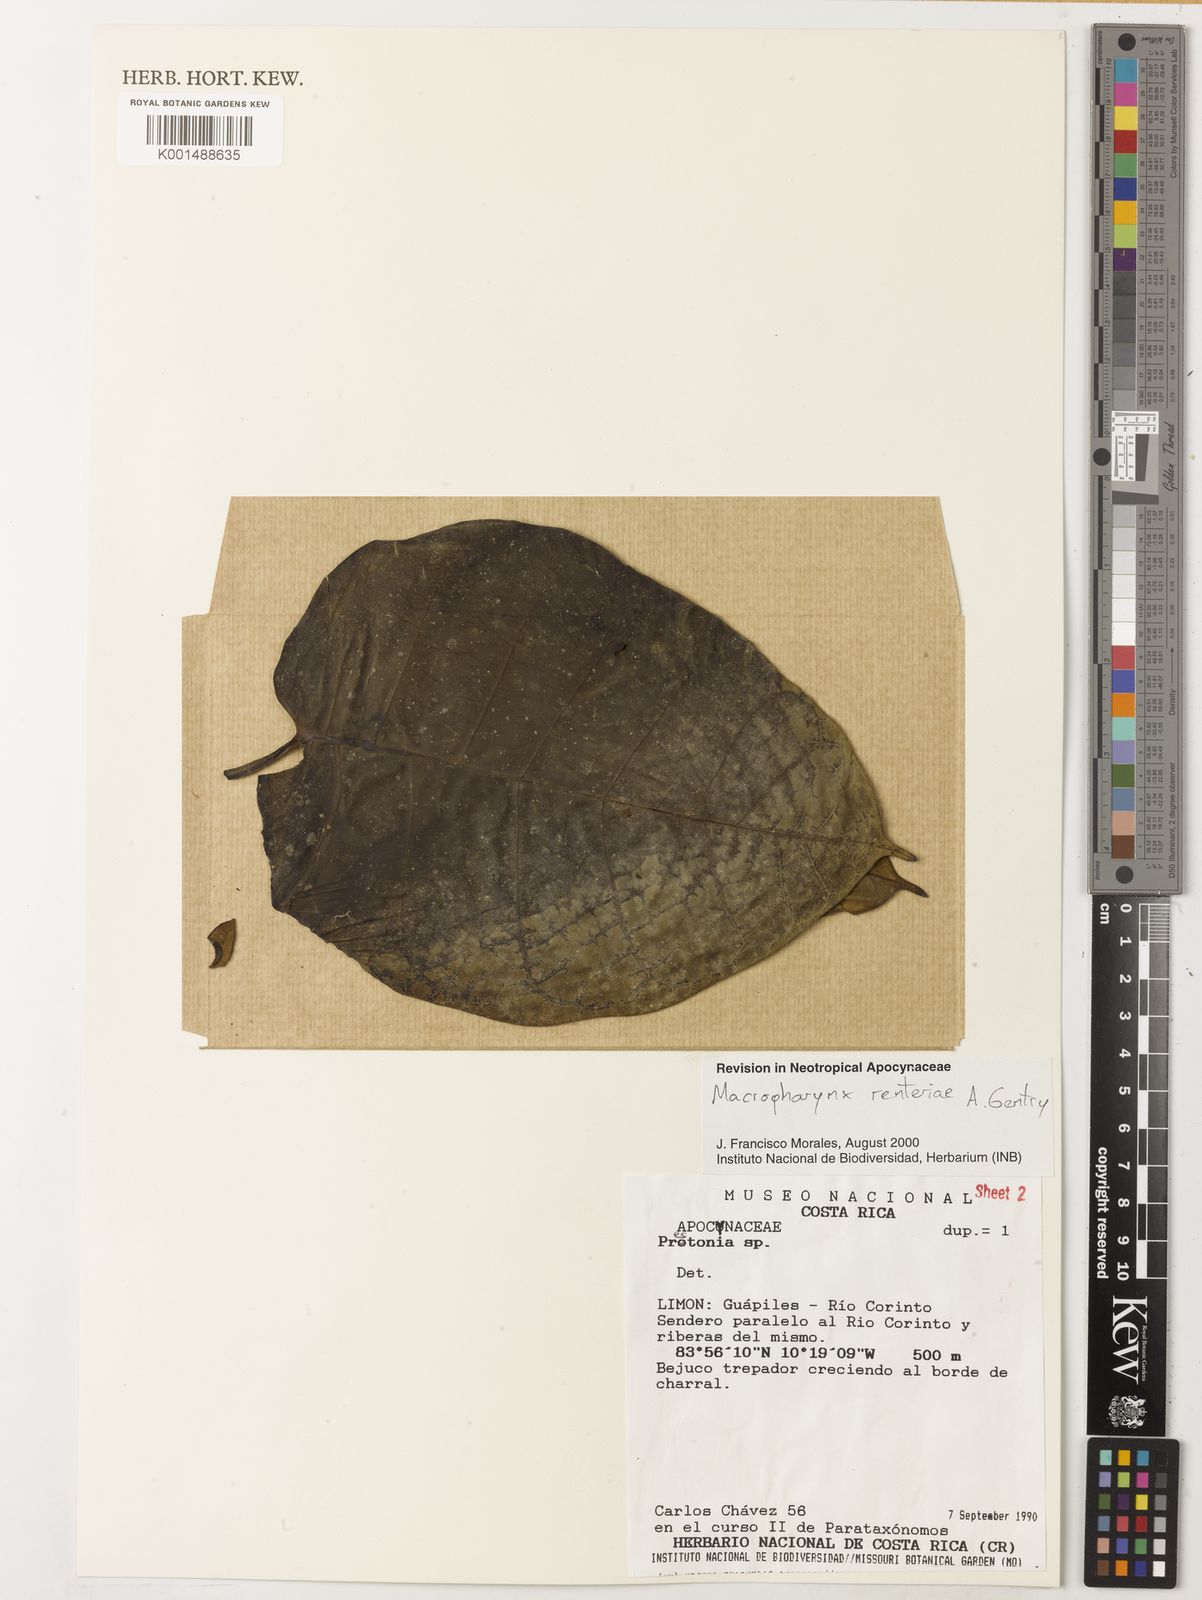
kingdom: Plantae
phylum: Tracheophyta
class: Magnoliopsida
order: Gentianales
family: Apocynaceae
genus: Macropharynx
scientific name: Macropharynx renteriae
